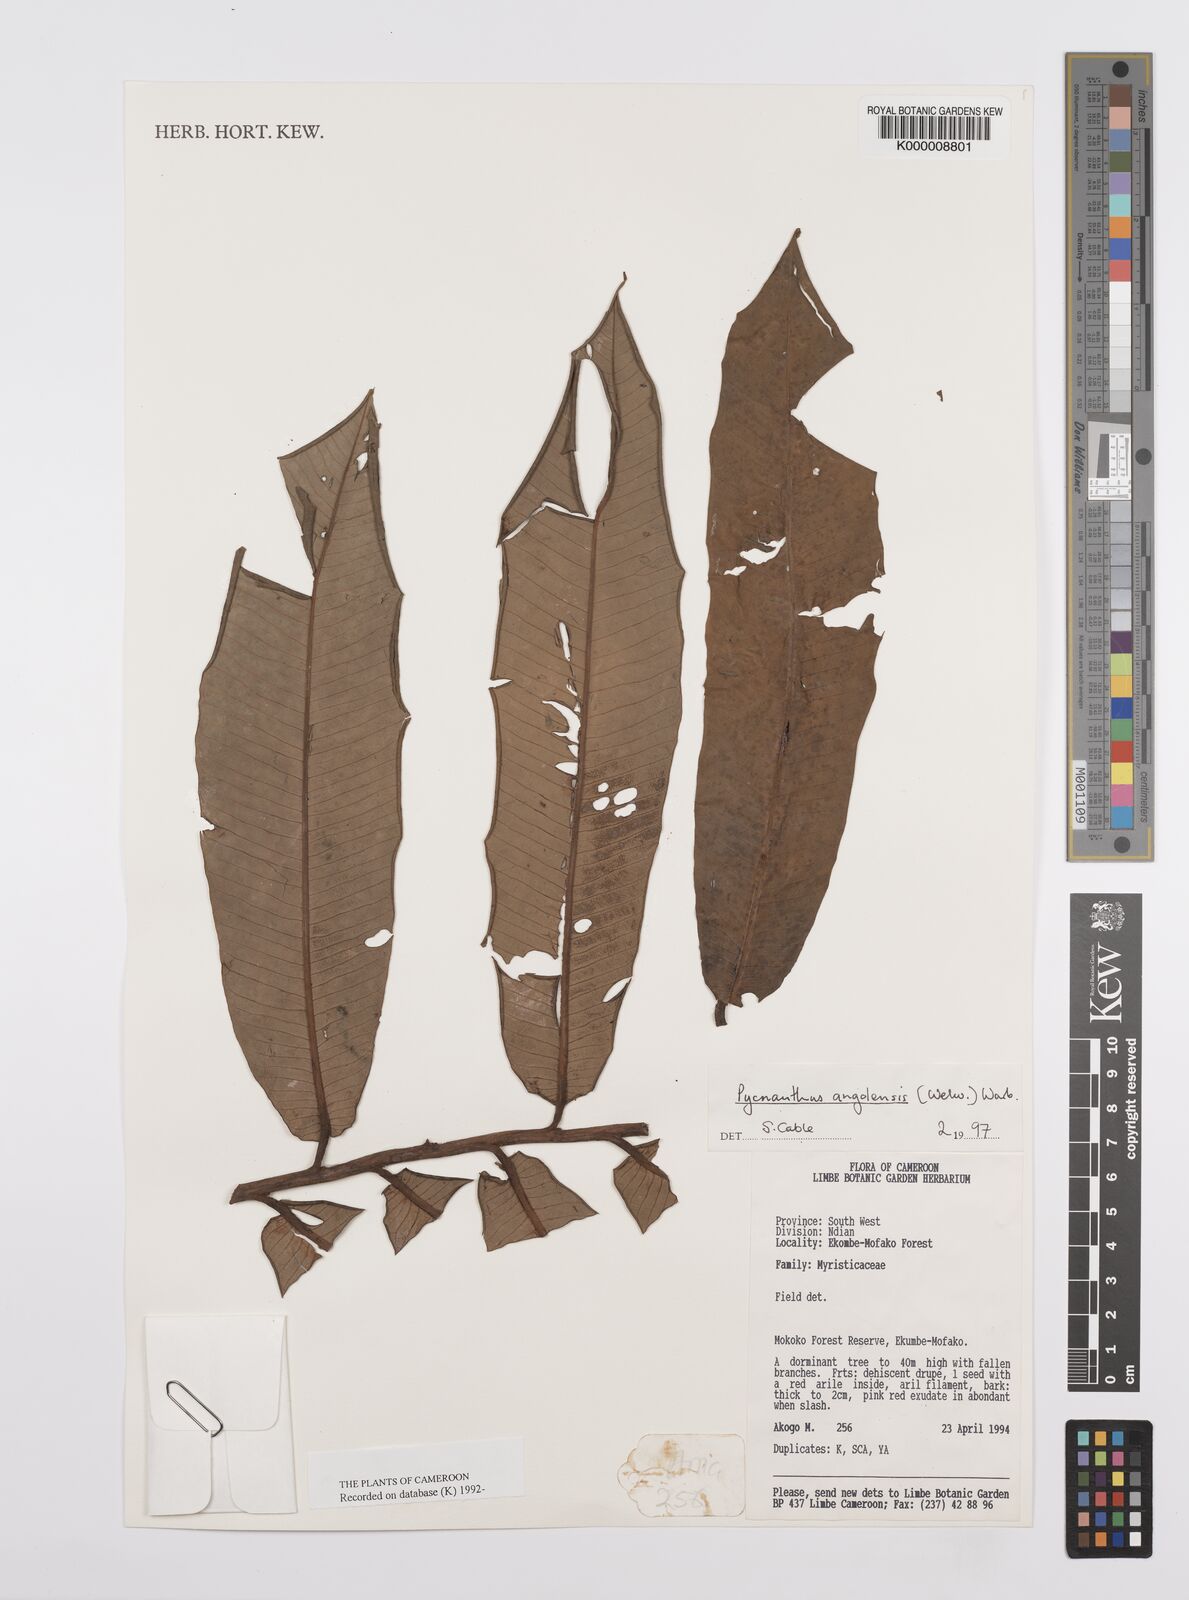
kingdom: Plantae
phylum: Tracheophyta
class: Magnoliopsida
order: Magnoliales
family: Myristicaceae
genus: Pycnanthus
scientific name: Pycnanthus angolensis
